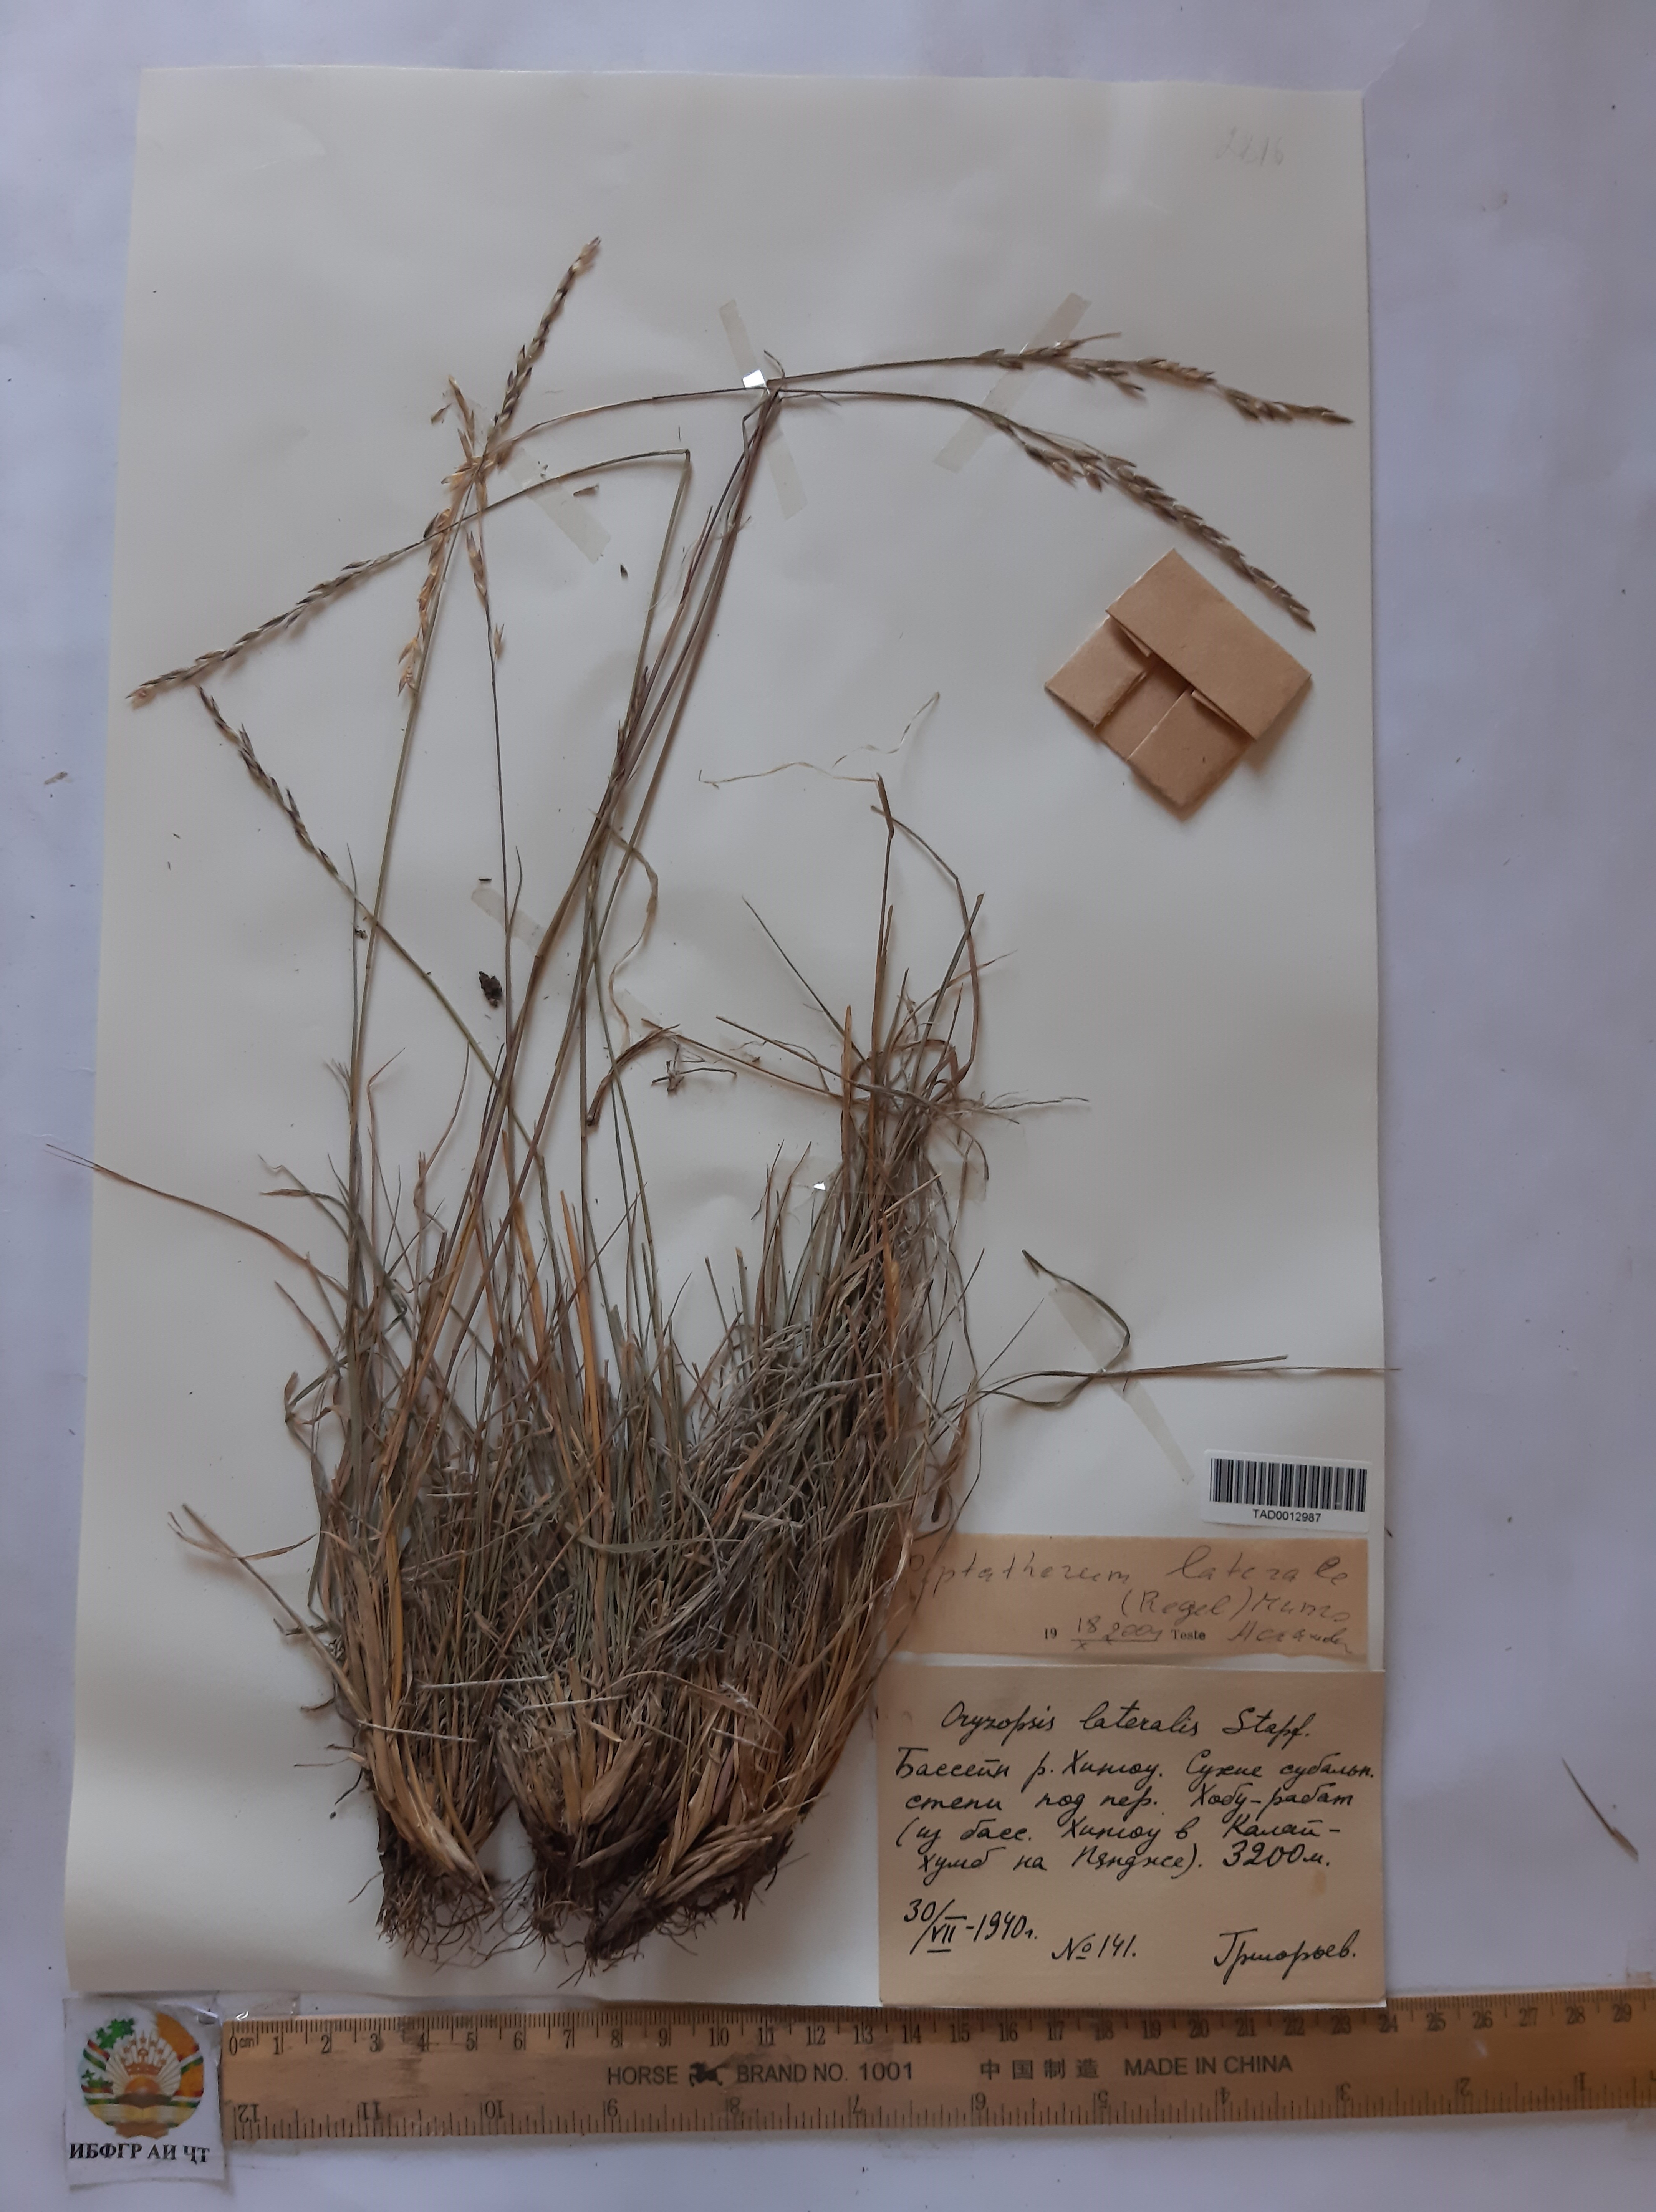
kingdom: Plantae
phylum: Tracheophyta
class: Liliopsida
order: Poales
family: Poaceae
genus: Piptatherum
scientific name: Piptatherum laterale
